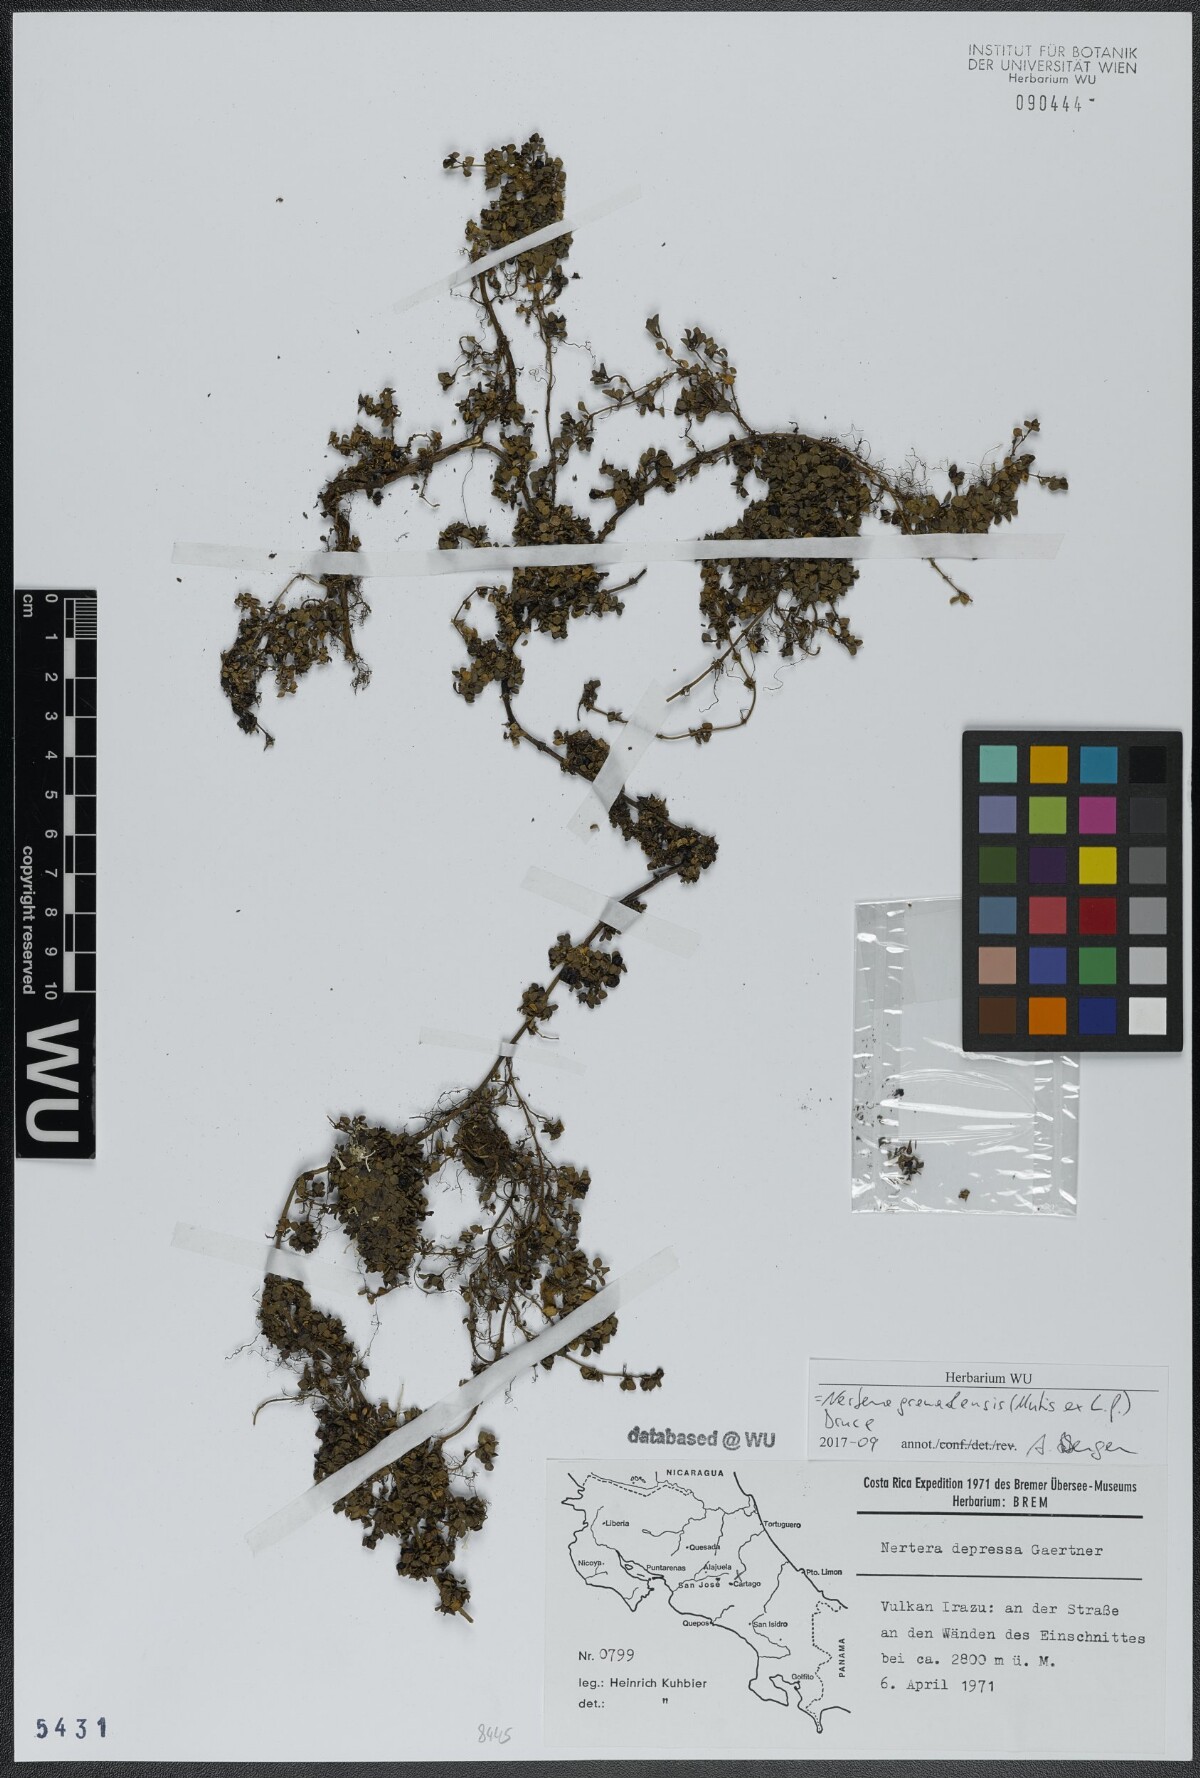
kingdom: Plantae
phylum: Tracheophyta
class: Magnoliopsida
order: Gentianales
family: Rubiaceae
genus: Nertera
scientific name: Nertera granadensis
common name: Beadplant
